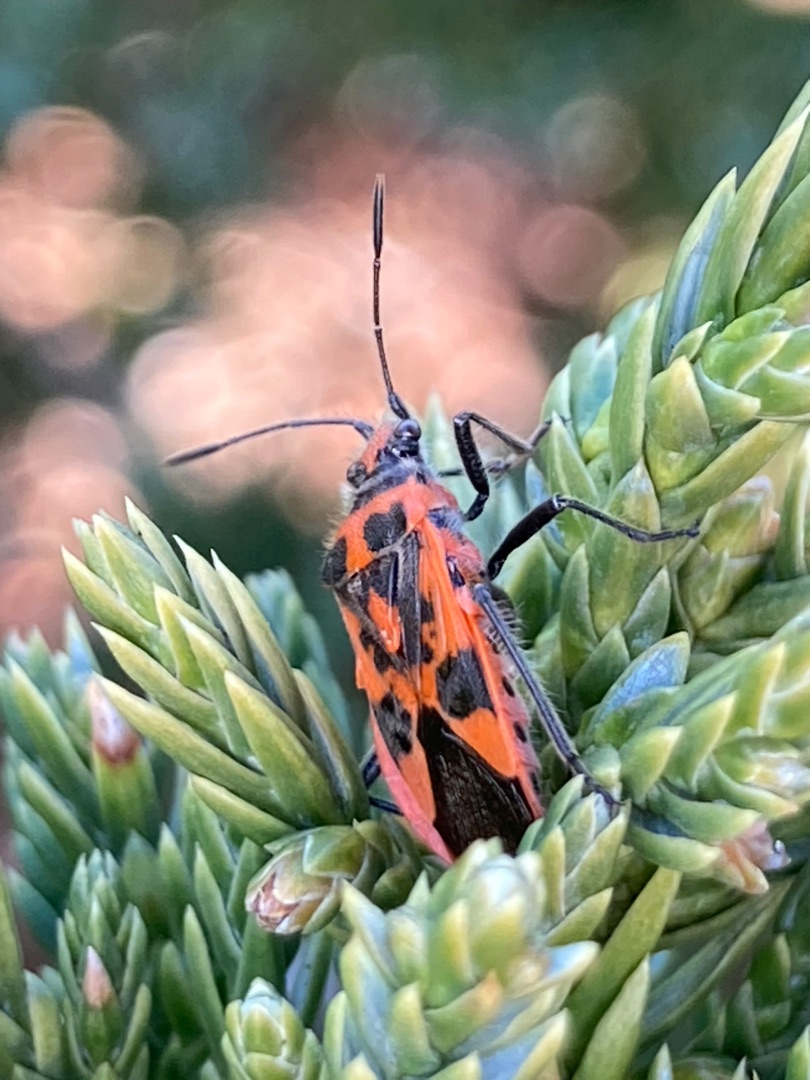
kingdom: Animalia
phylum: Arthropoda
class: Insecta
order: Hemiptera
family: Rhopalidae
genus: Corizus
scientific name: Corizus hyoscyami
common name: Rød kanttæge
